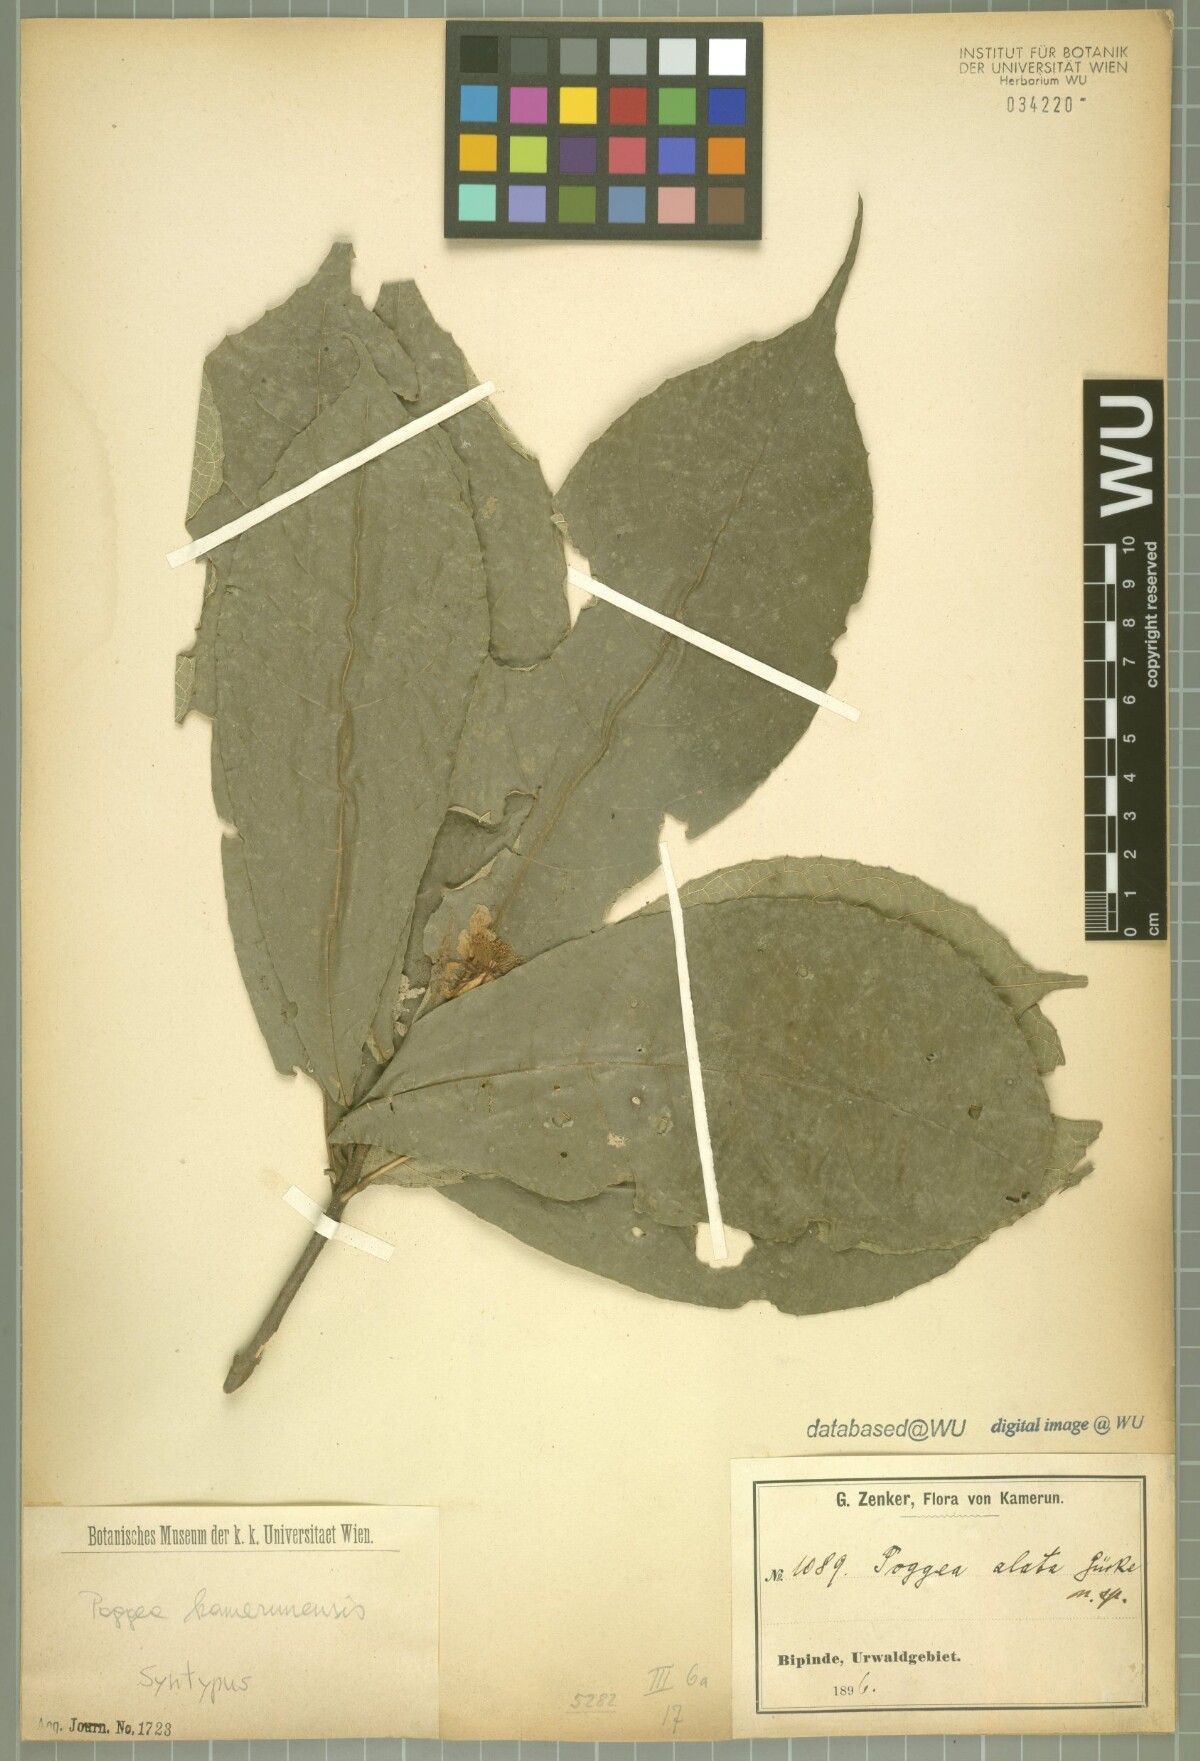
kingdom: Plantae
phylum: Tracheophyta
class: Magnoliopsida
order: Malpighiales
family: Achariaceae
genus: Poggea
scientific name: Poggea alata
